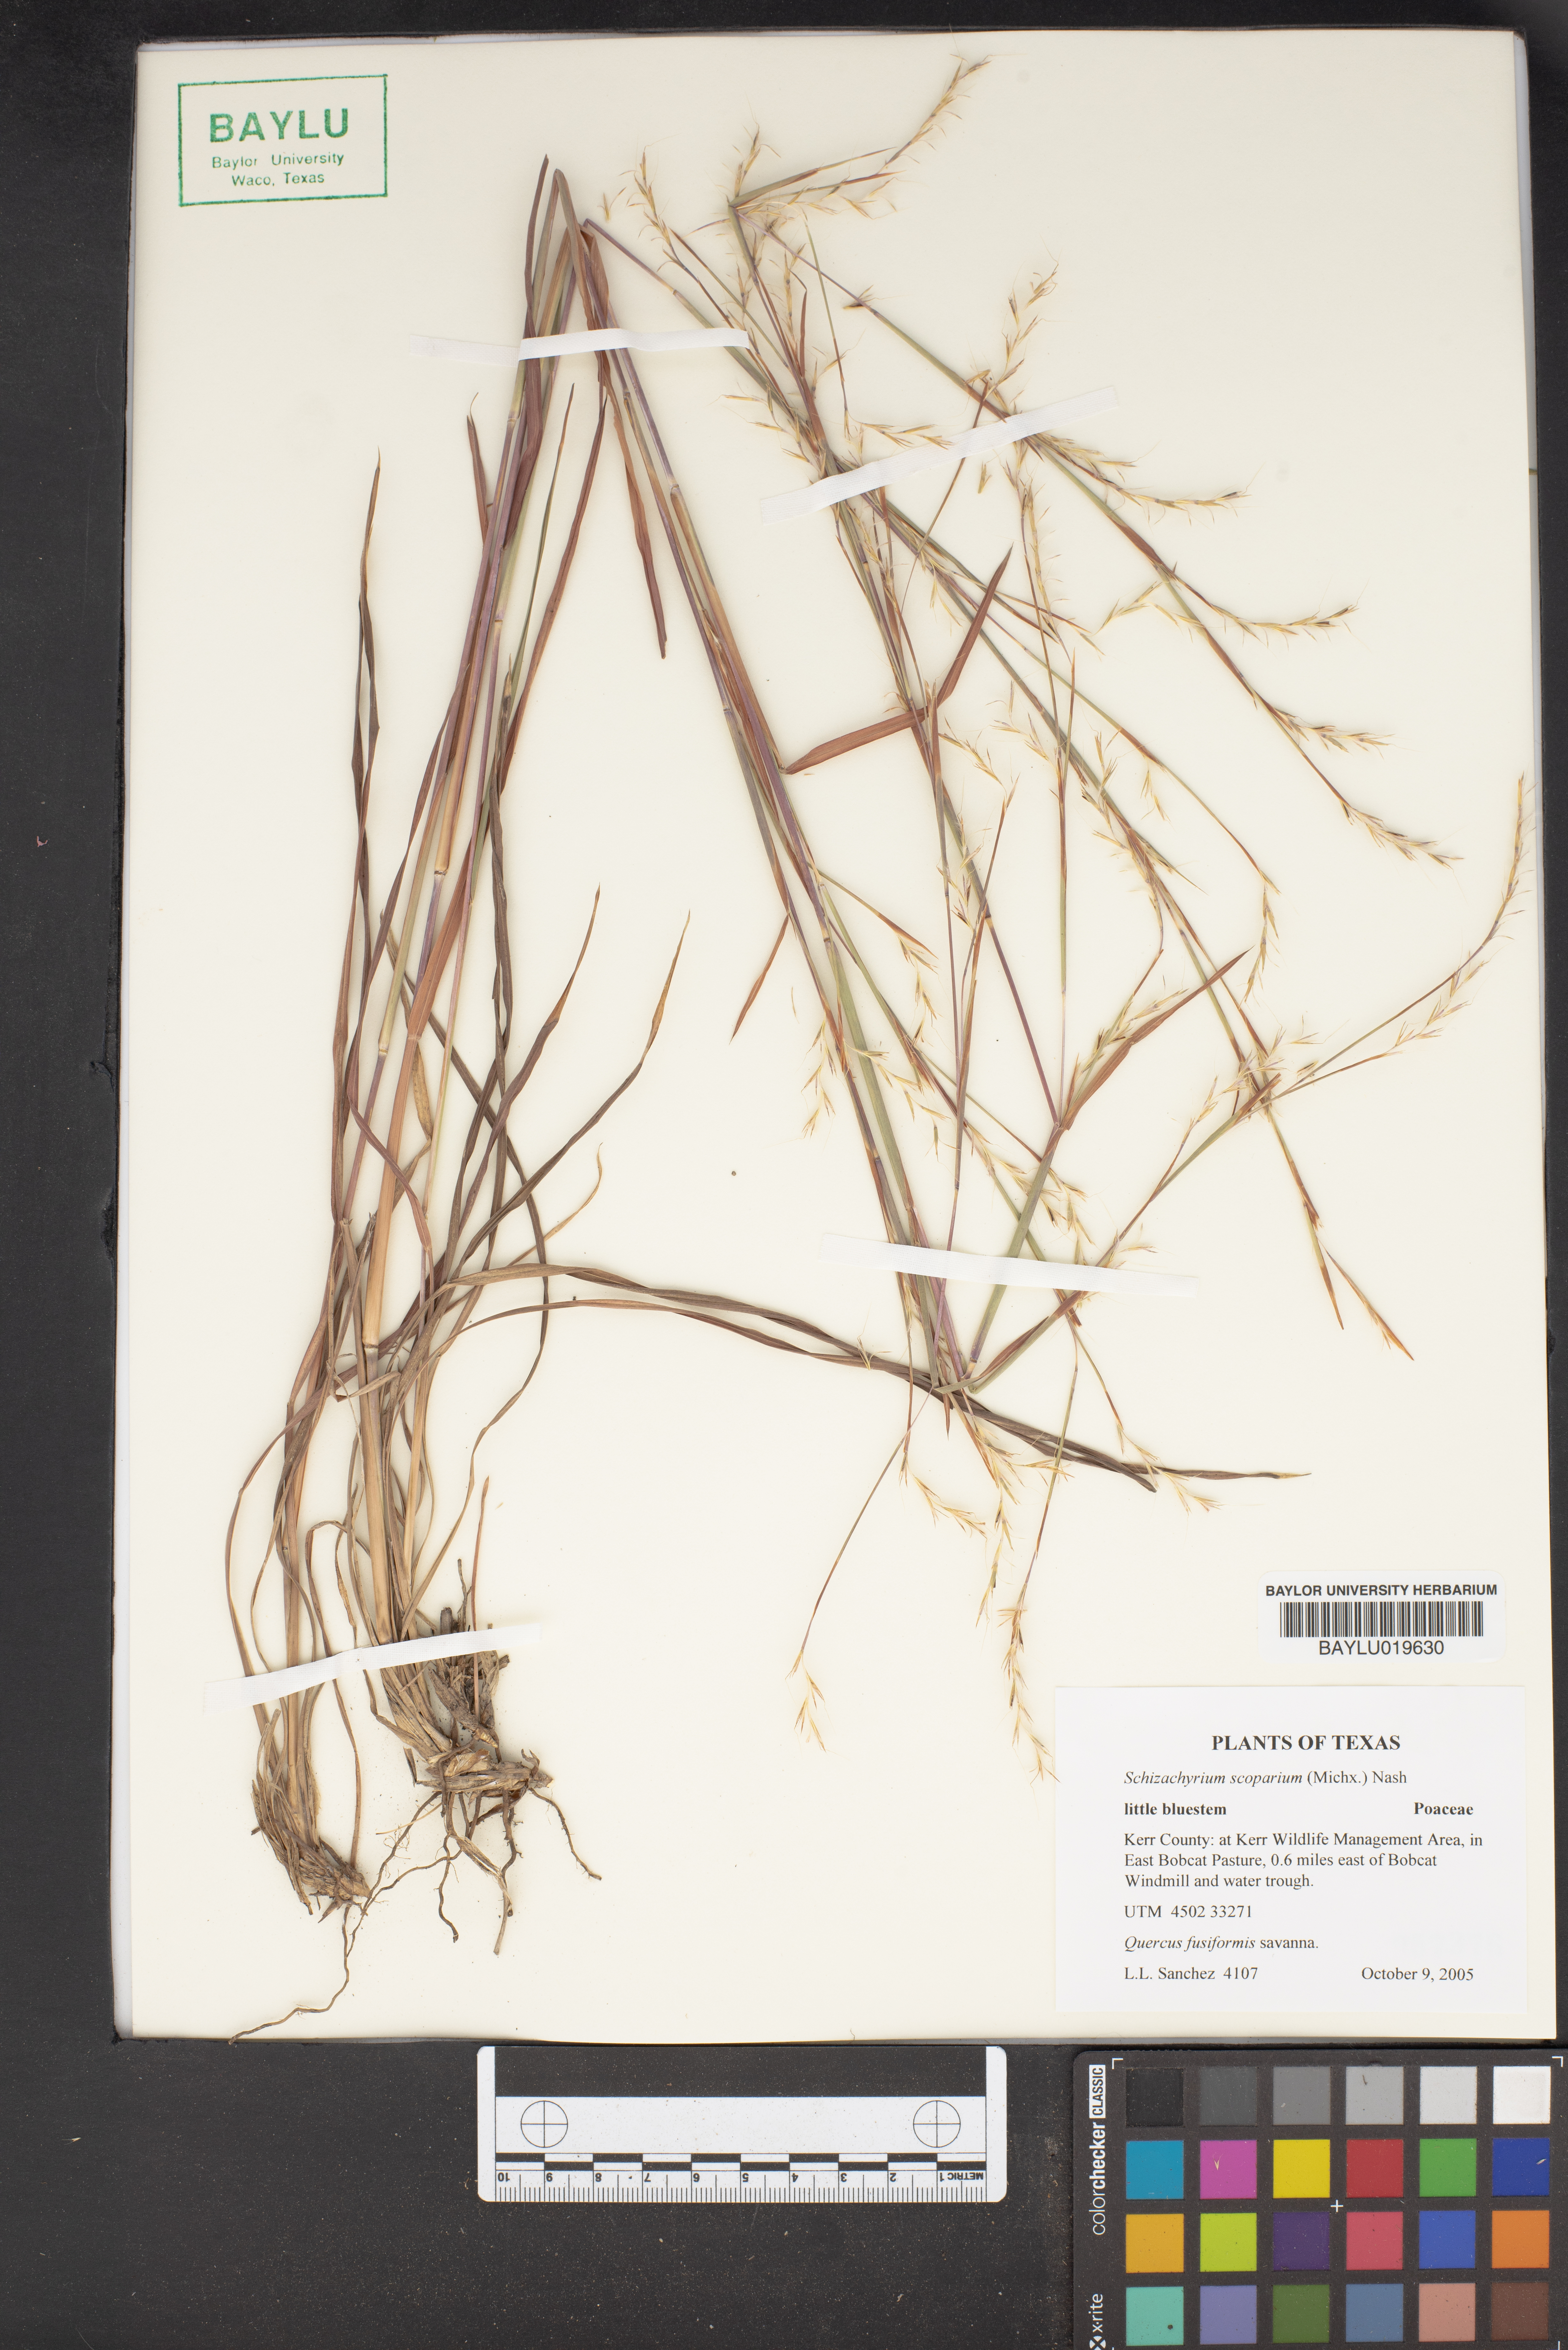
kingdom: Plantae
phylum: Tracheophyta
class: Liliopsida
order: Poales
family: Poaceae
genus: Schizachyrium
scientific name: Schizachyrium scoparium
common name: Little bluestem
